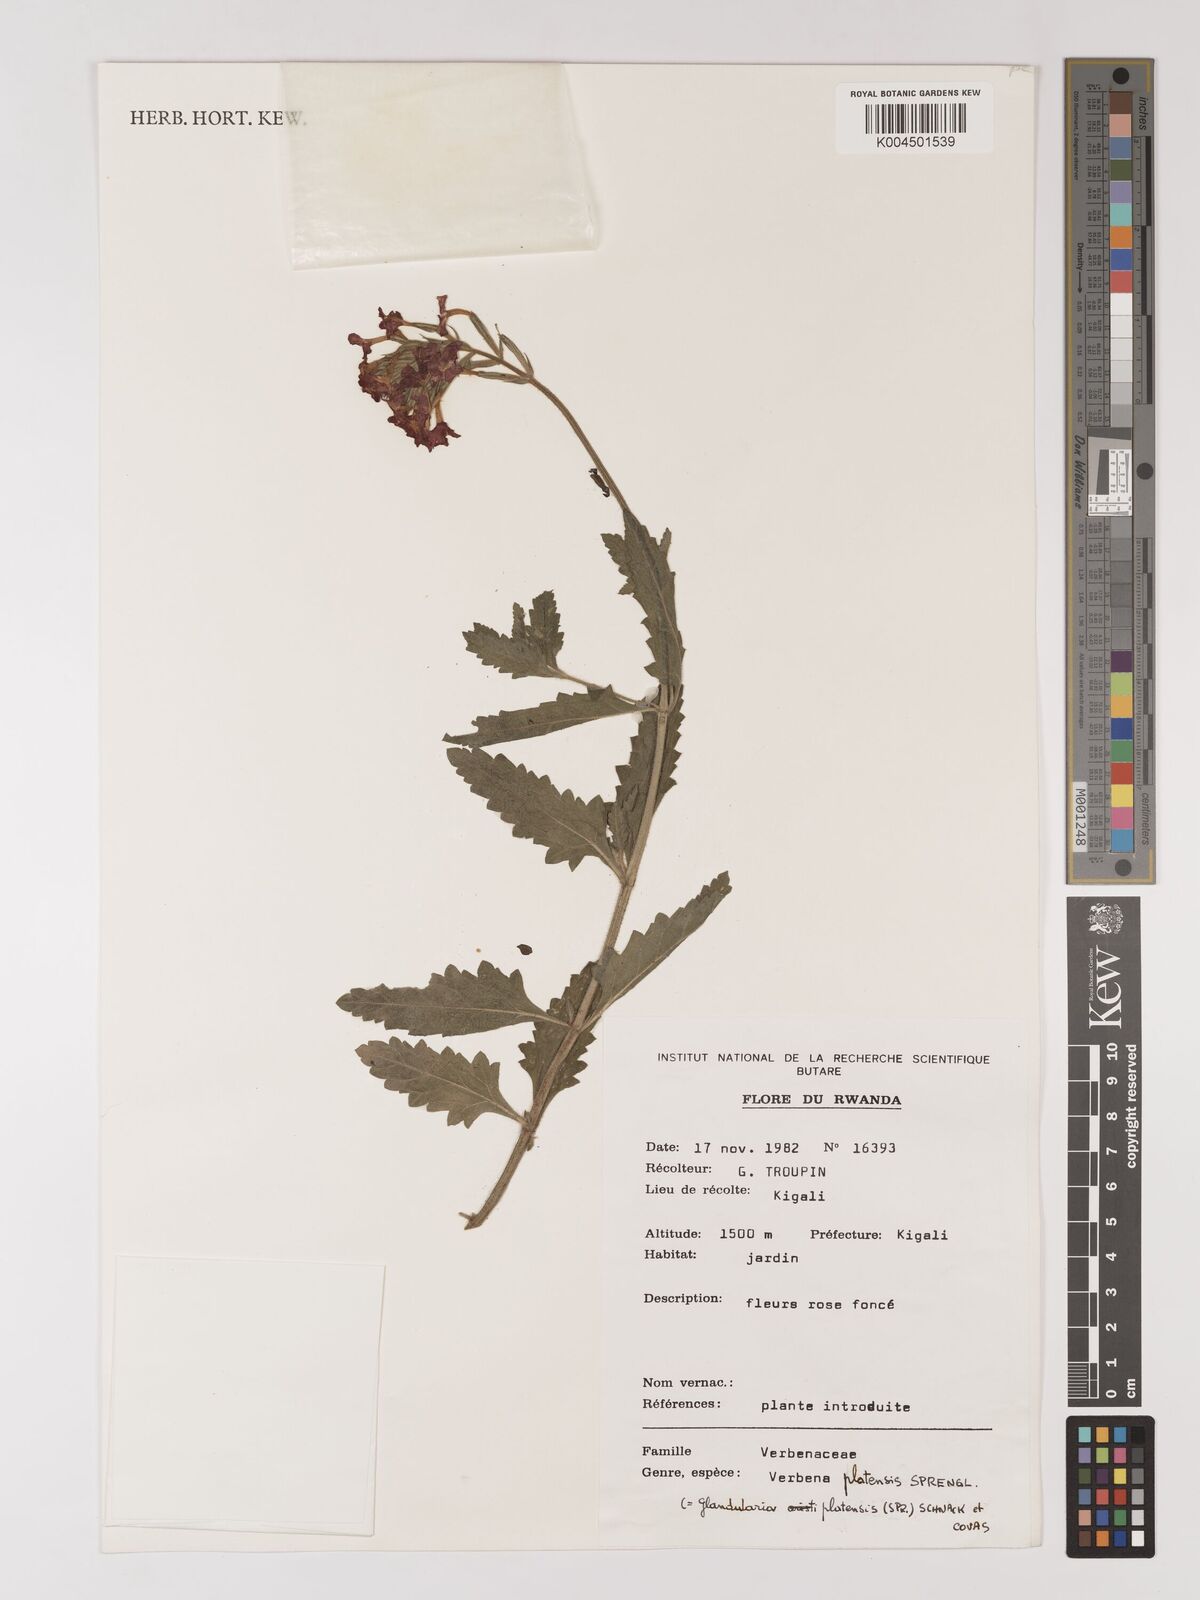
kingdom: Plantae
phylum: Tracheophyta
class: Magnoliopsida
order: Lamiales
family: Verbenaceae
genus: Verbena
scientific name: Verbena platensis
